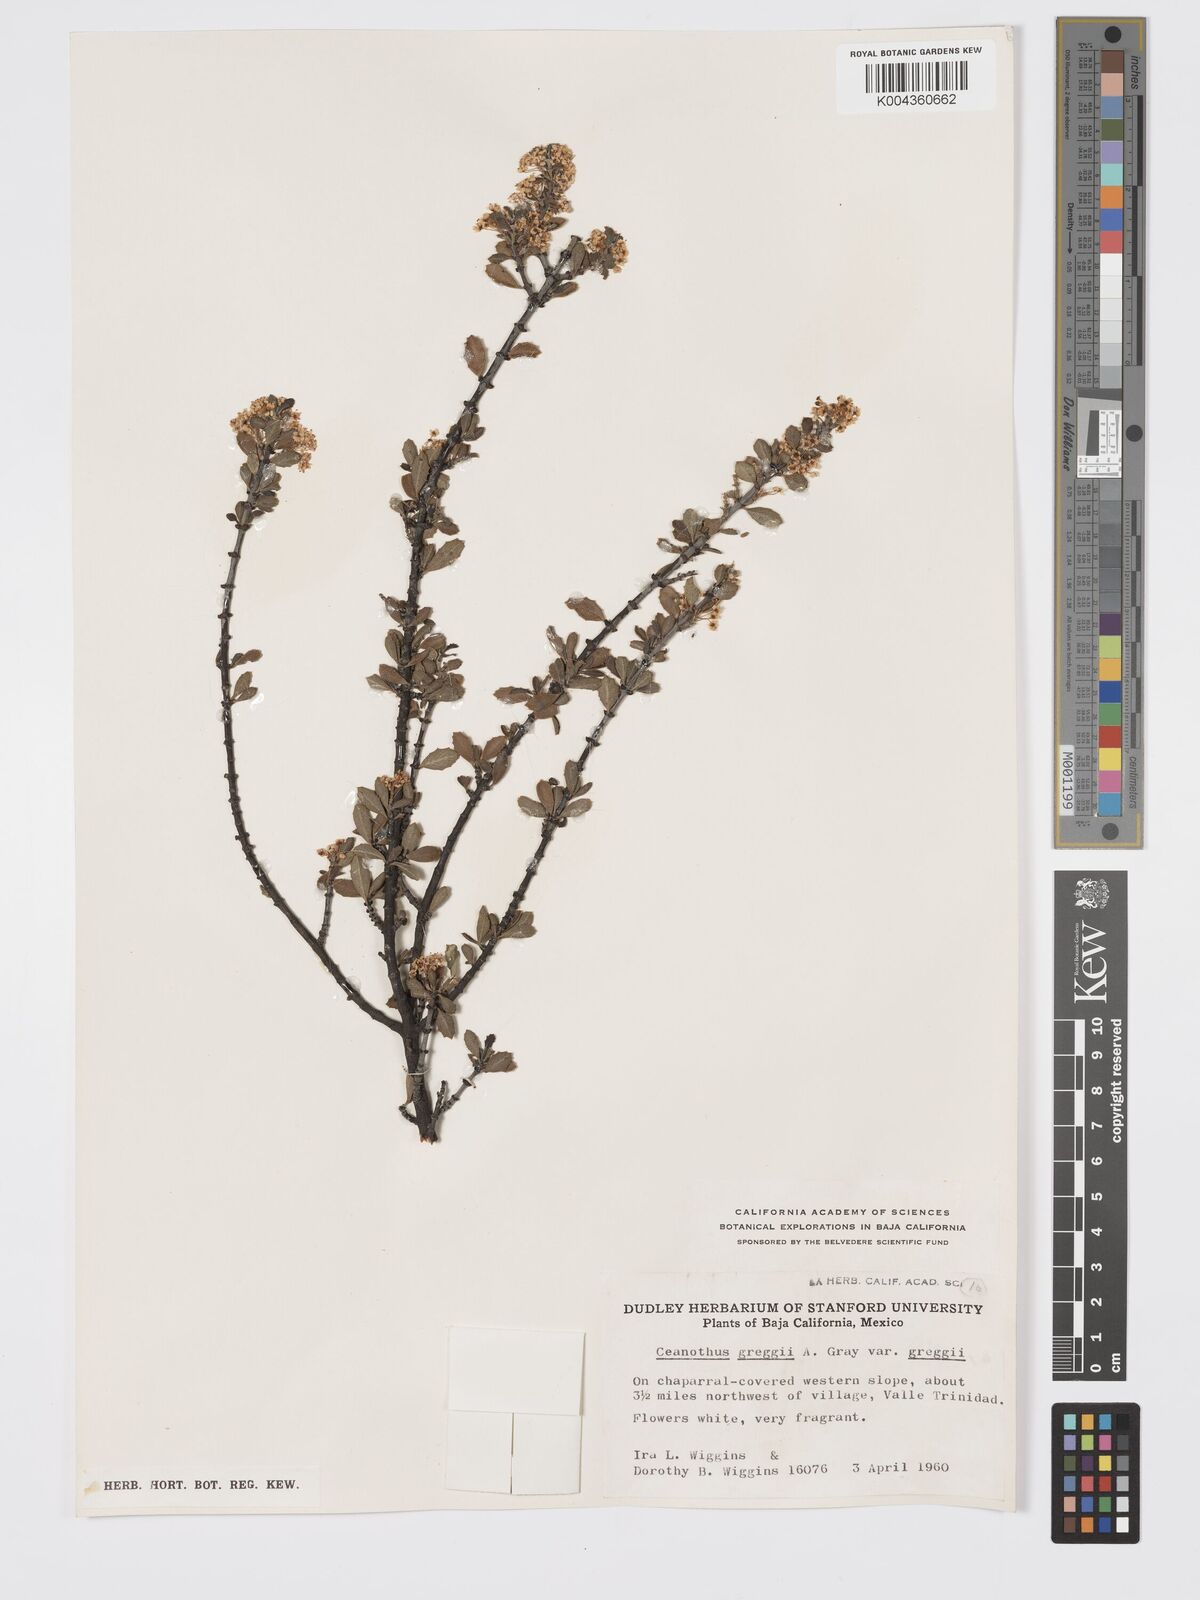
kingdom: Plantae
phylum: Tracheophyta
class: Magnoliopsida
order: Rosales
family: Rhamnaceae
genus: Ceanothus
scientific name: Ceanothus pauciflorus
